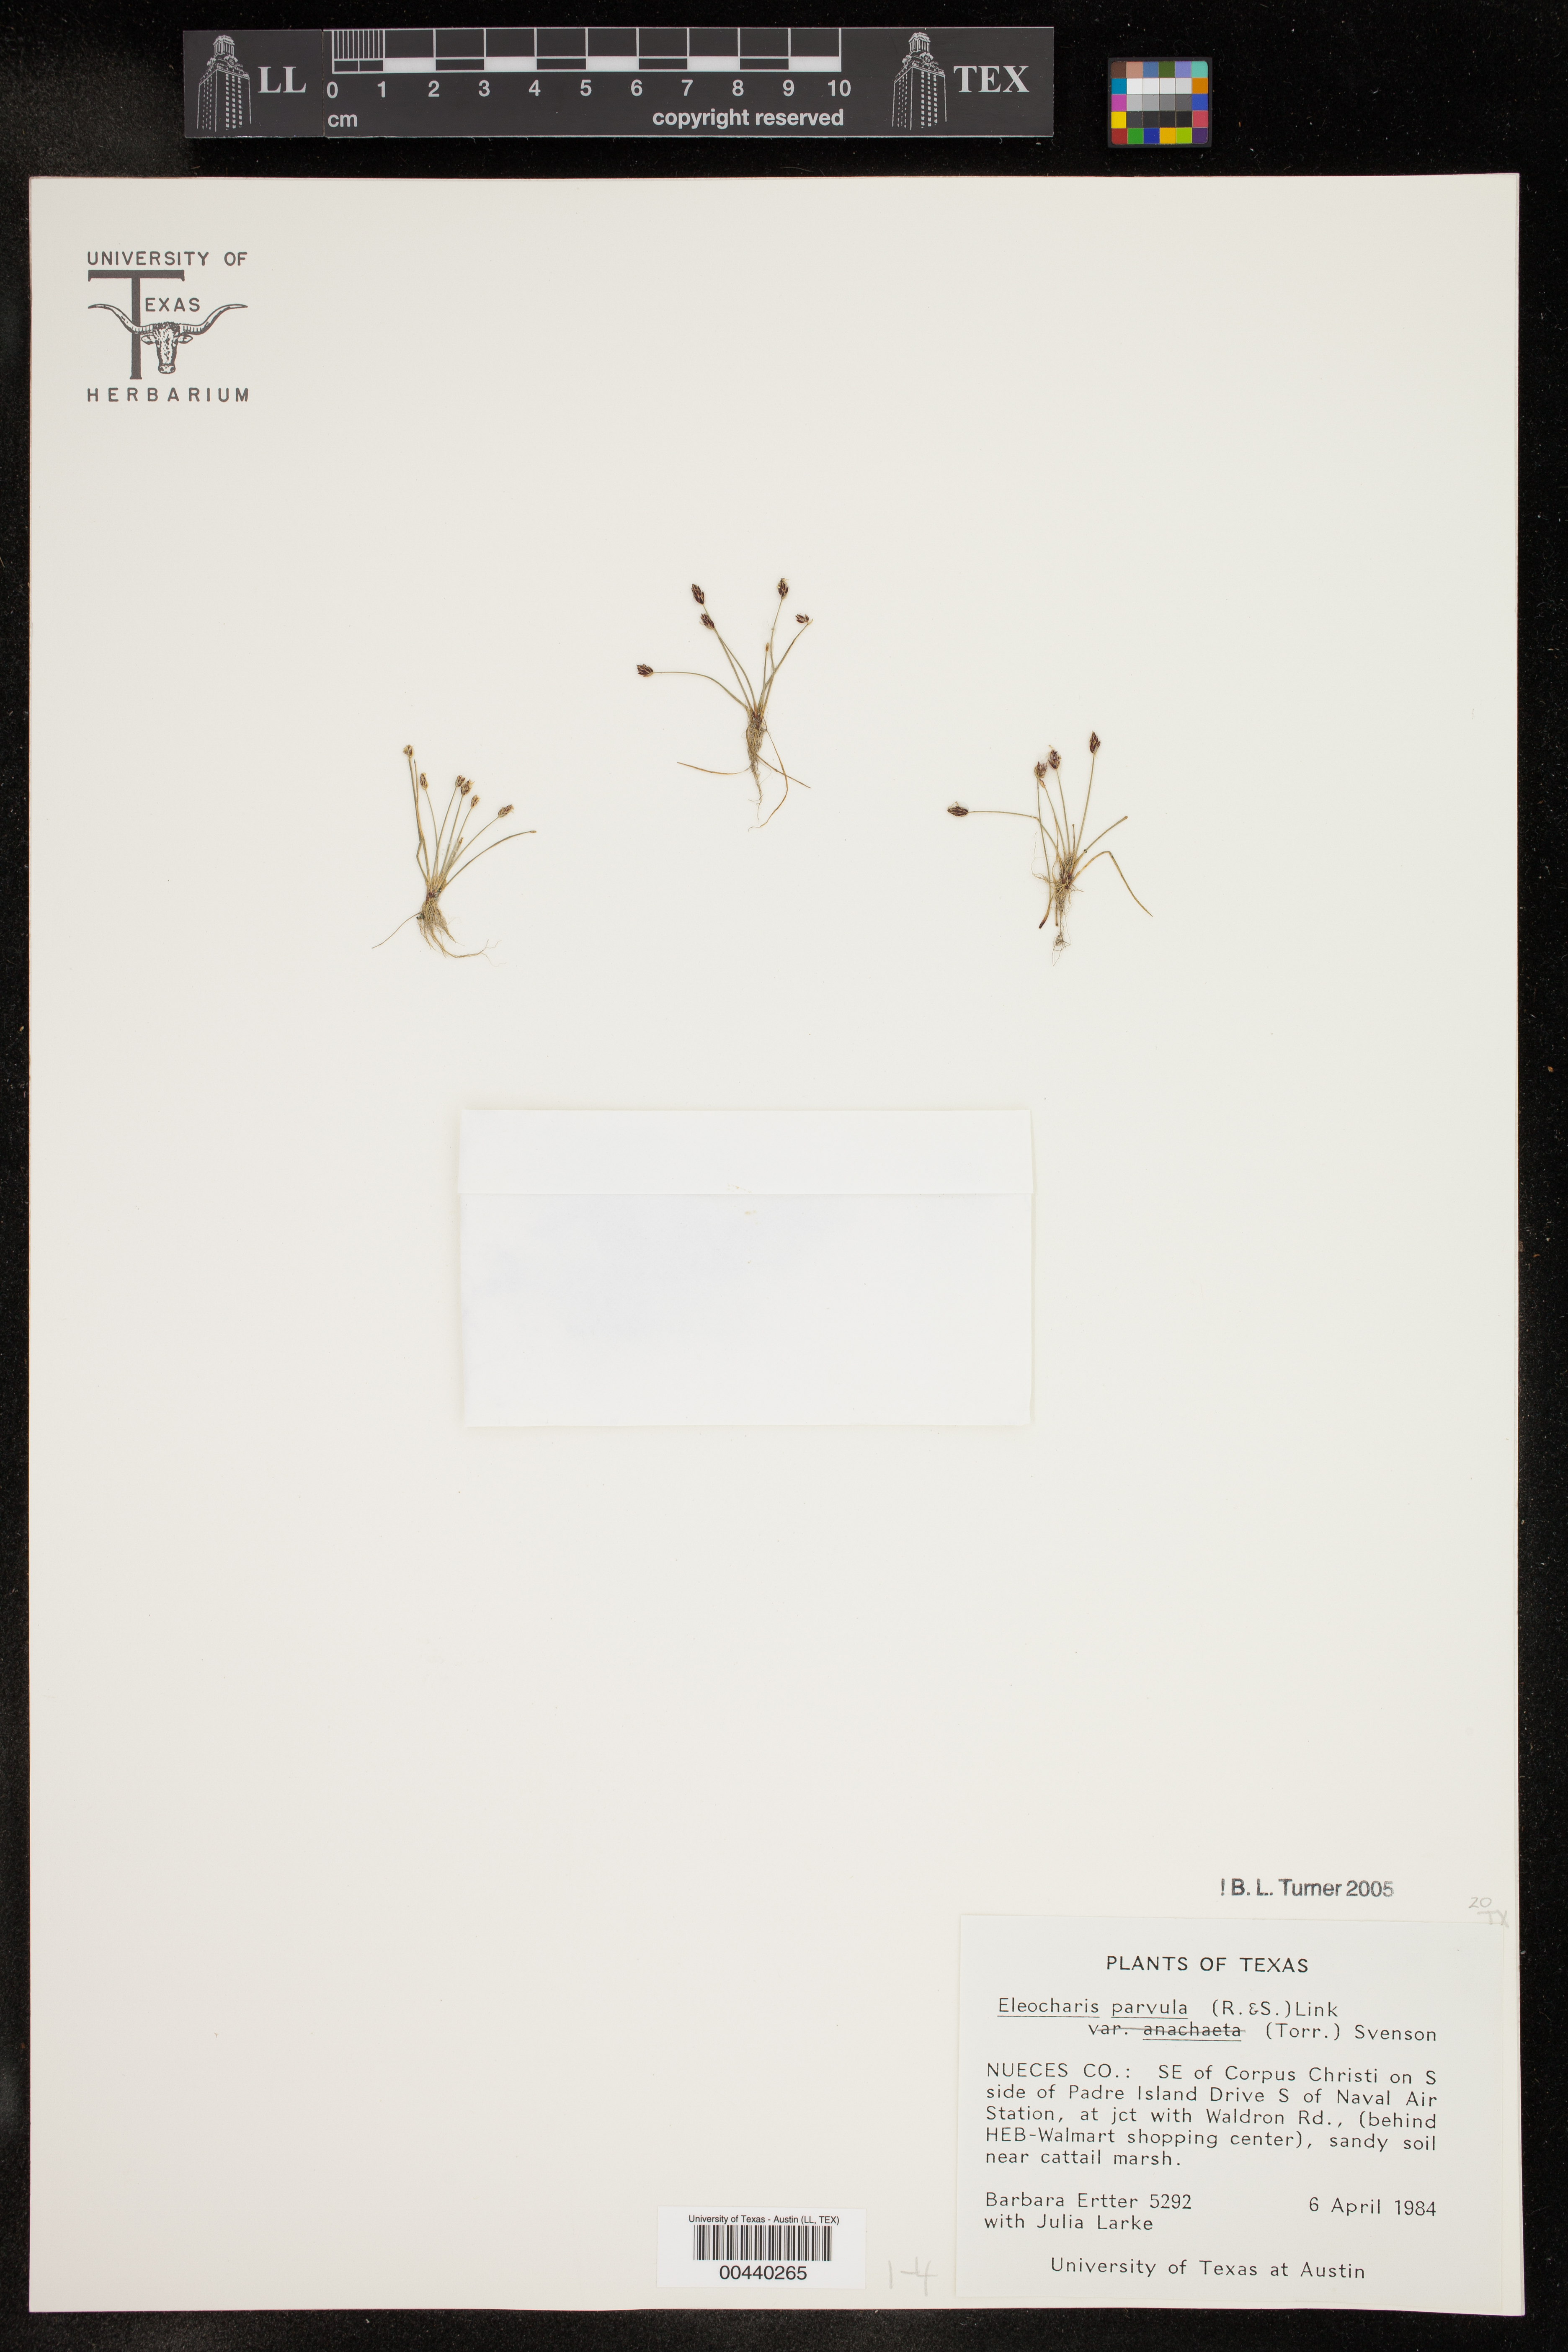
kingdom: Plantae
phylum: Tracheophyta
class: Liliopsida
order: Poales
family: Cyperaceae
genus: Eleocharis
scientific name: Eleocharis parvula
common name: Dwarf spike-rush
